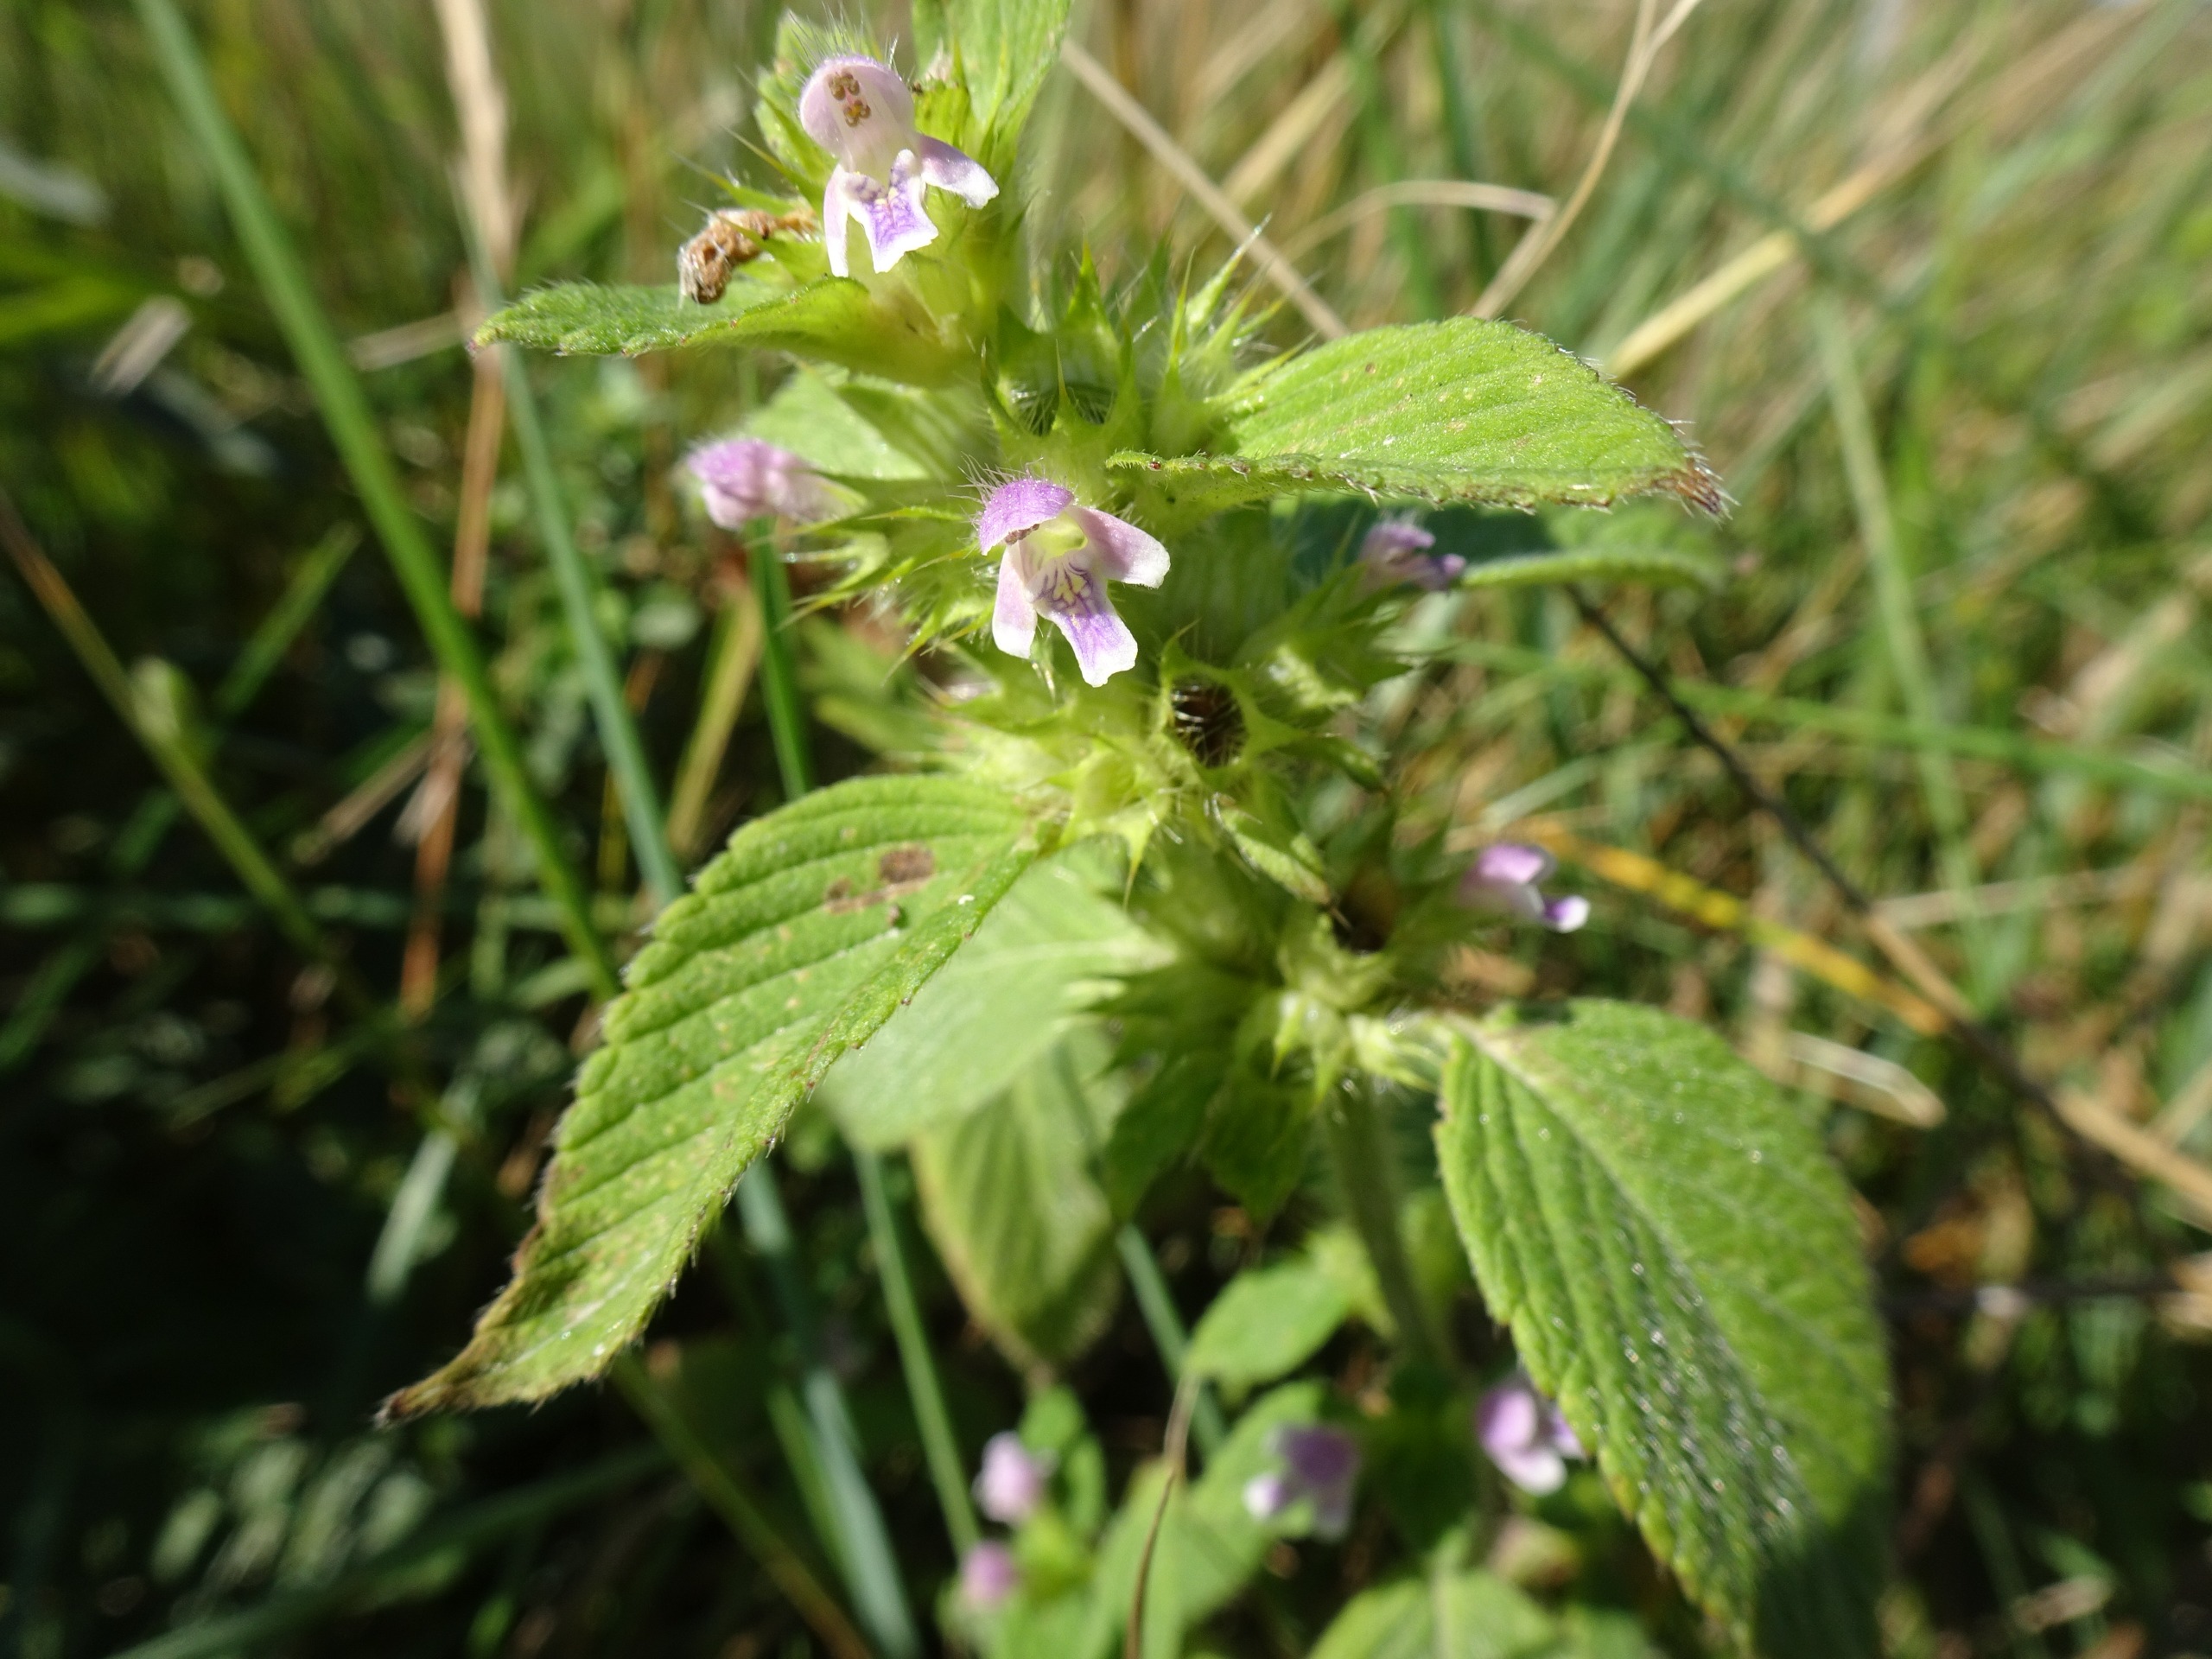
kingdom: Plantae
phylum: Tracheophyta
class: Magnoliopsida
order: Lamiales
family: Lamiaceae
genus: Galeopsis
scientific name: Galeopsis bifida
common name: Skov-hanekro
